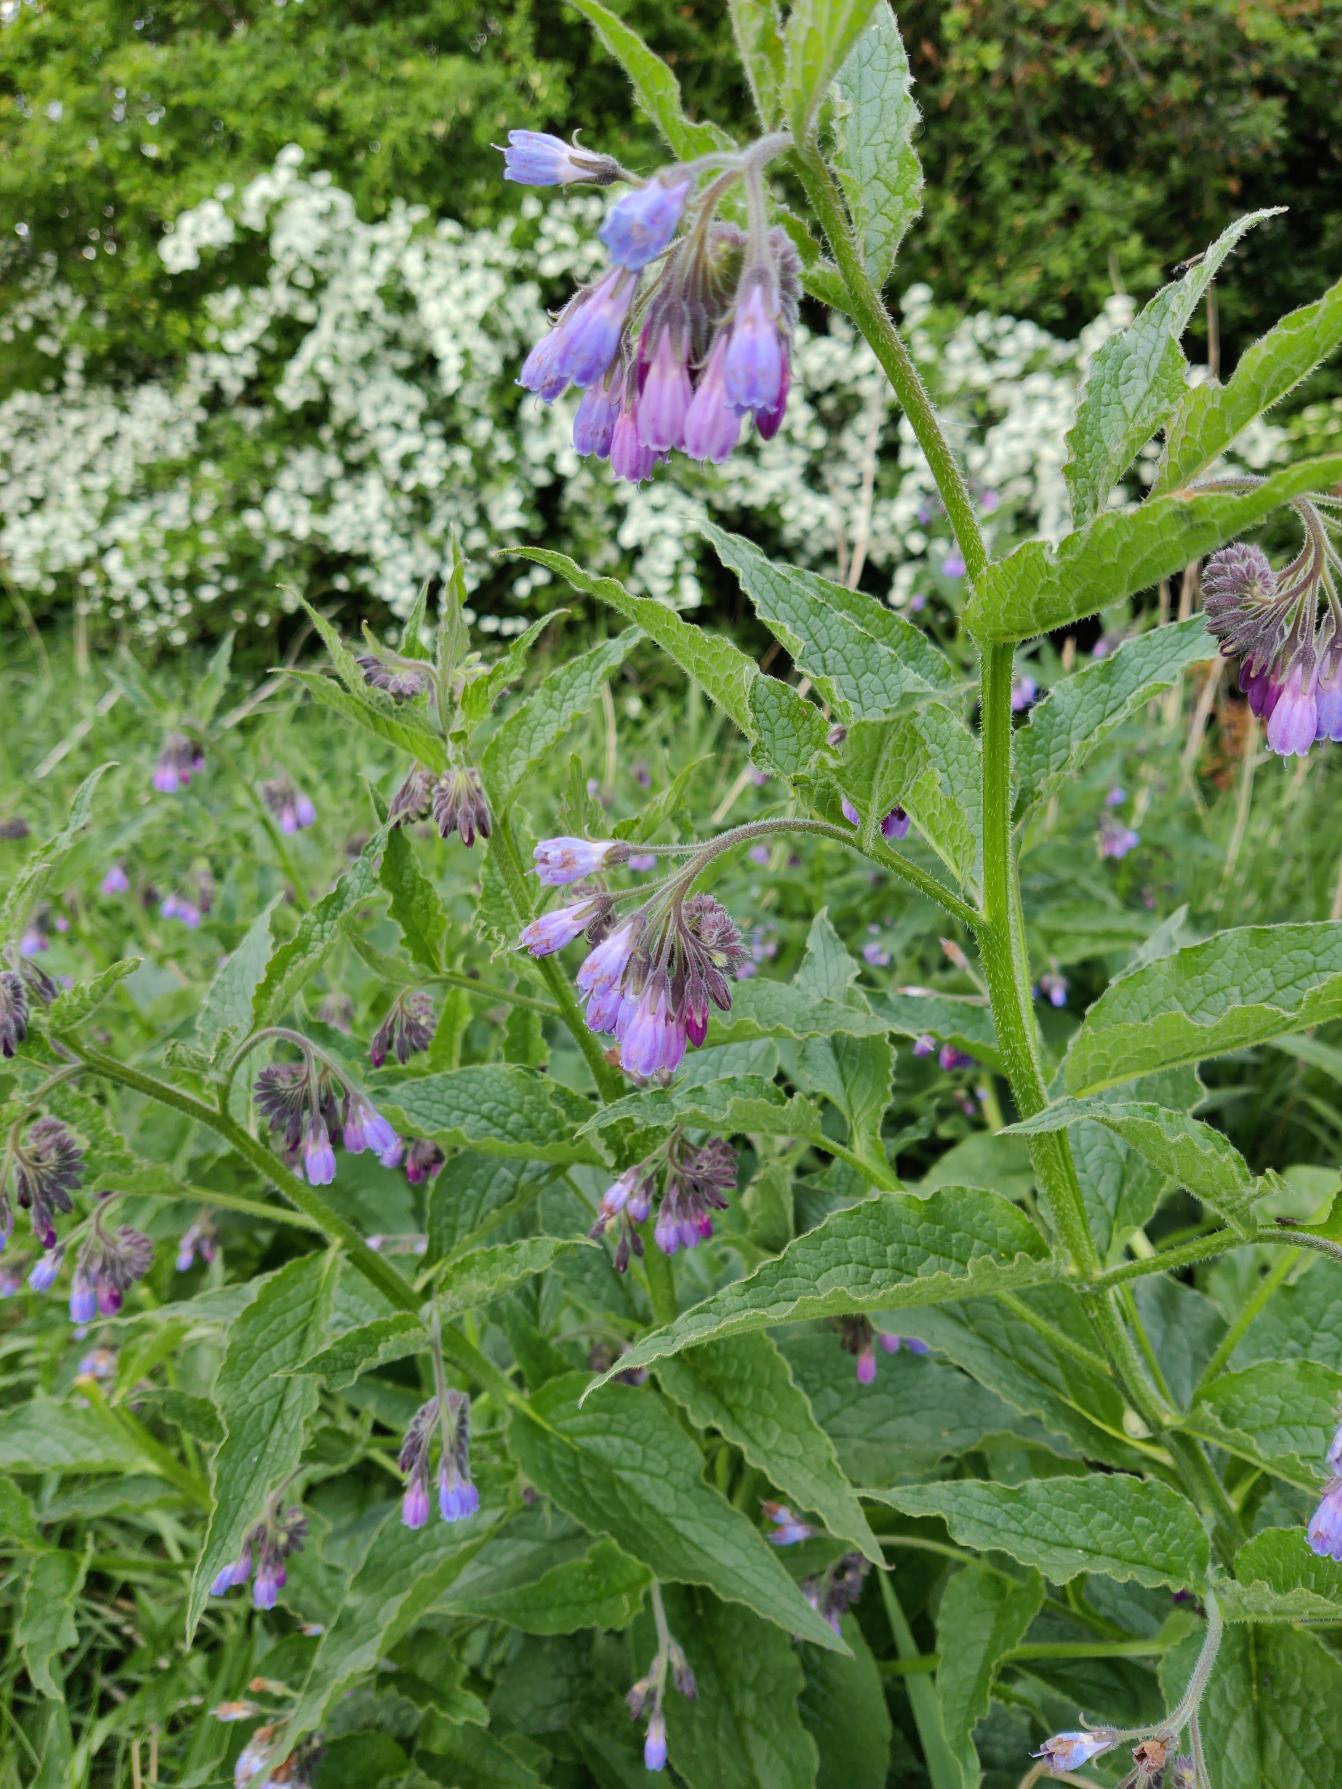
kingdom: Plantae
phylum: Tracheophyta
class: Magnoliopsida
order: Boraginales
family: Boraginaceae
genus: Symphytum
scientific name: Symphytum uplandicum
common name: Foder-kulsukker
